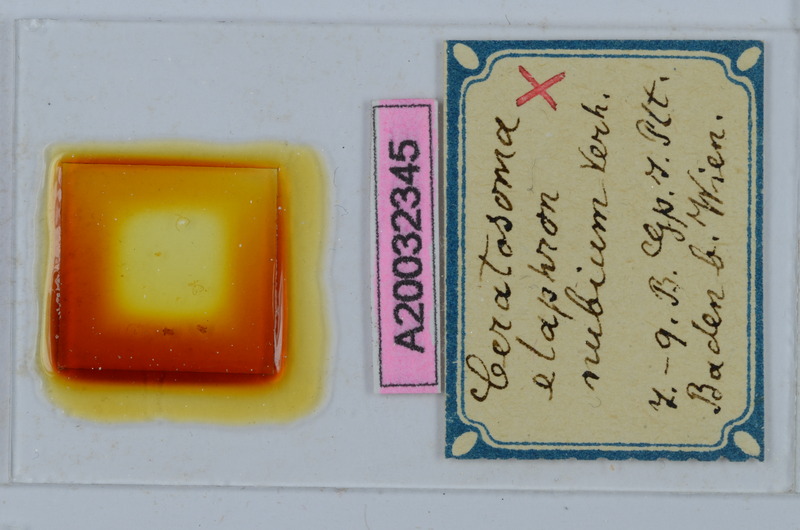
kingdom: Animalia
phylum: Arthropoda
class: Diplopoda
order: Chordeumatida
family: Craspedosomatidae
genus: Euceratosoma
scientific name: Euceratosoma elaphron
